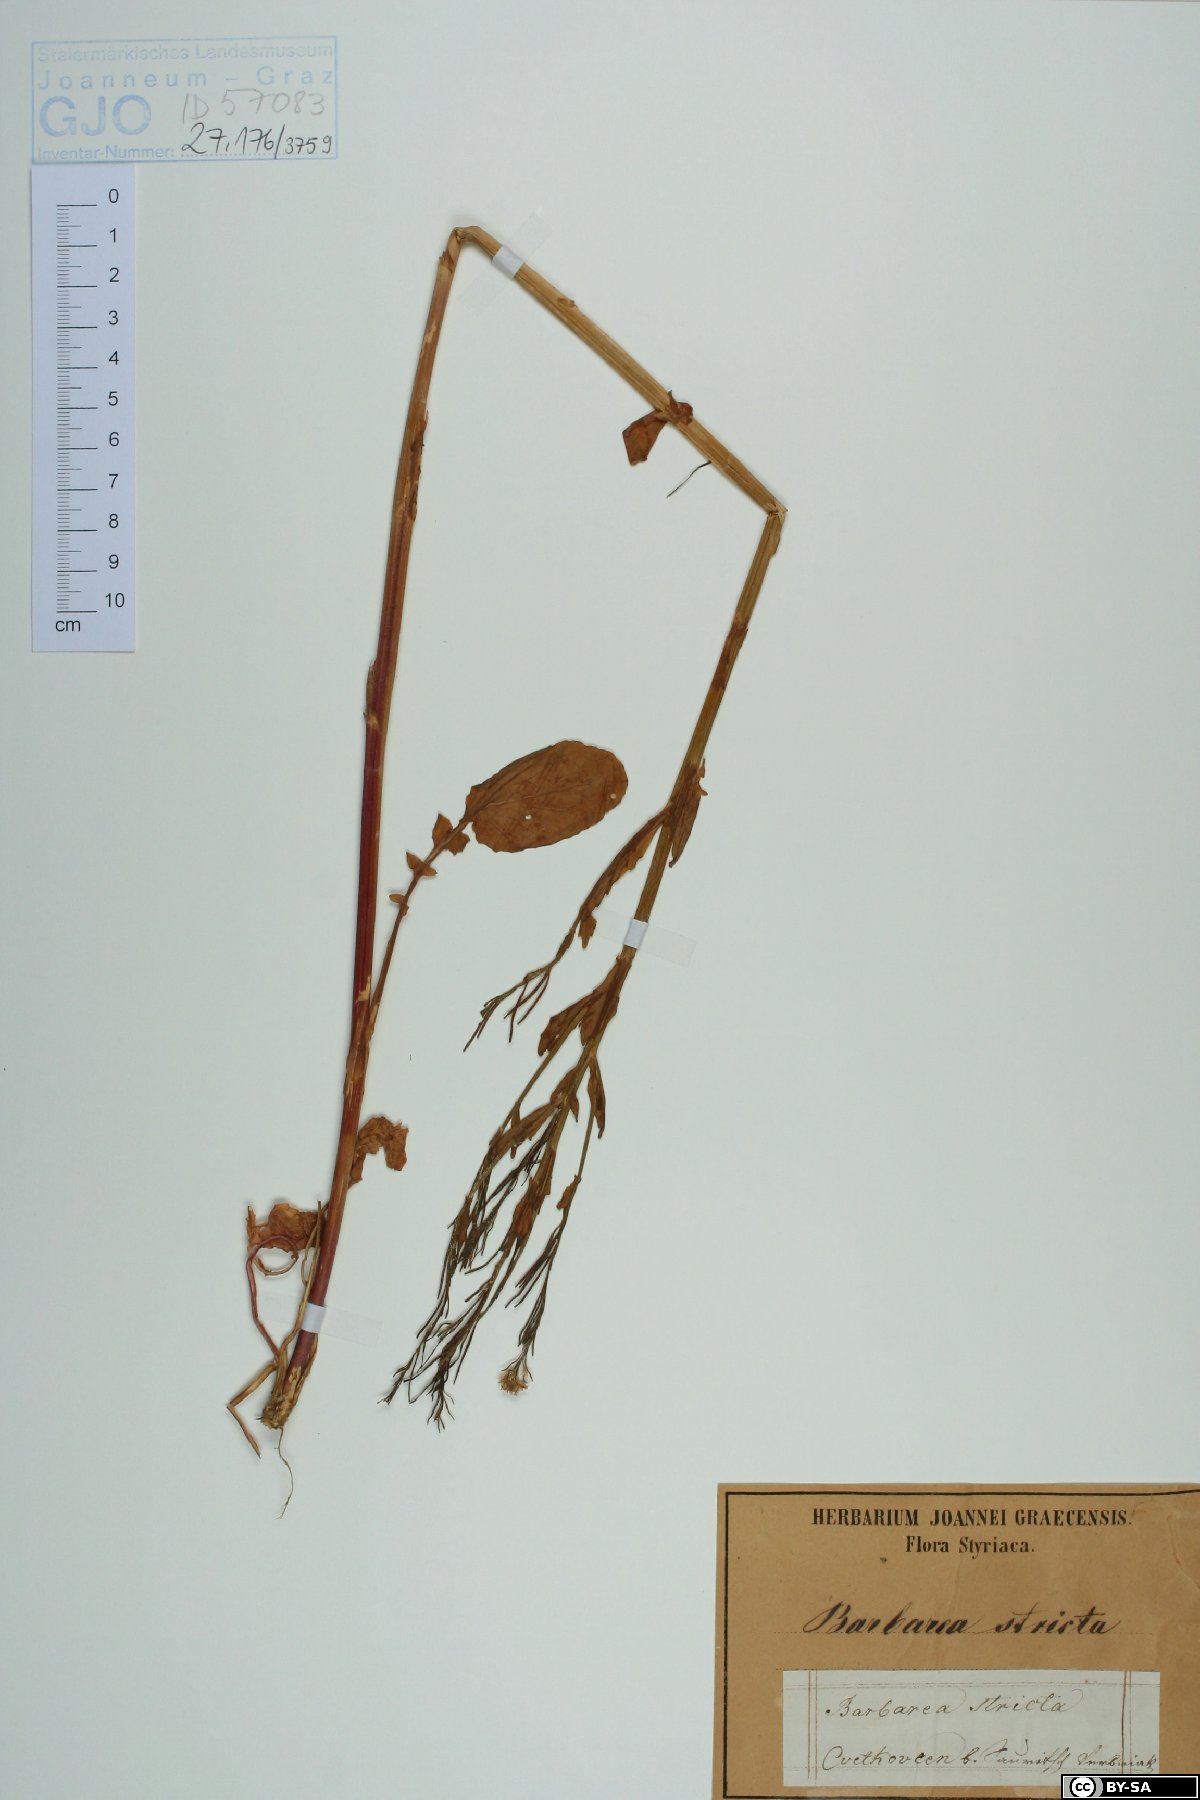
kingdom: Plantae
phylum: Tracheophyta
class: Magnoliopsida
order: Brassicales
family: Brassicaceae
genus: Barbarea
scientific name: Barbarea stricta
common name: Small-flowered winter-cress
